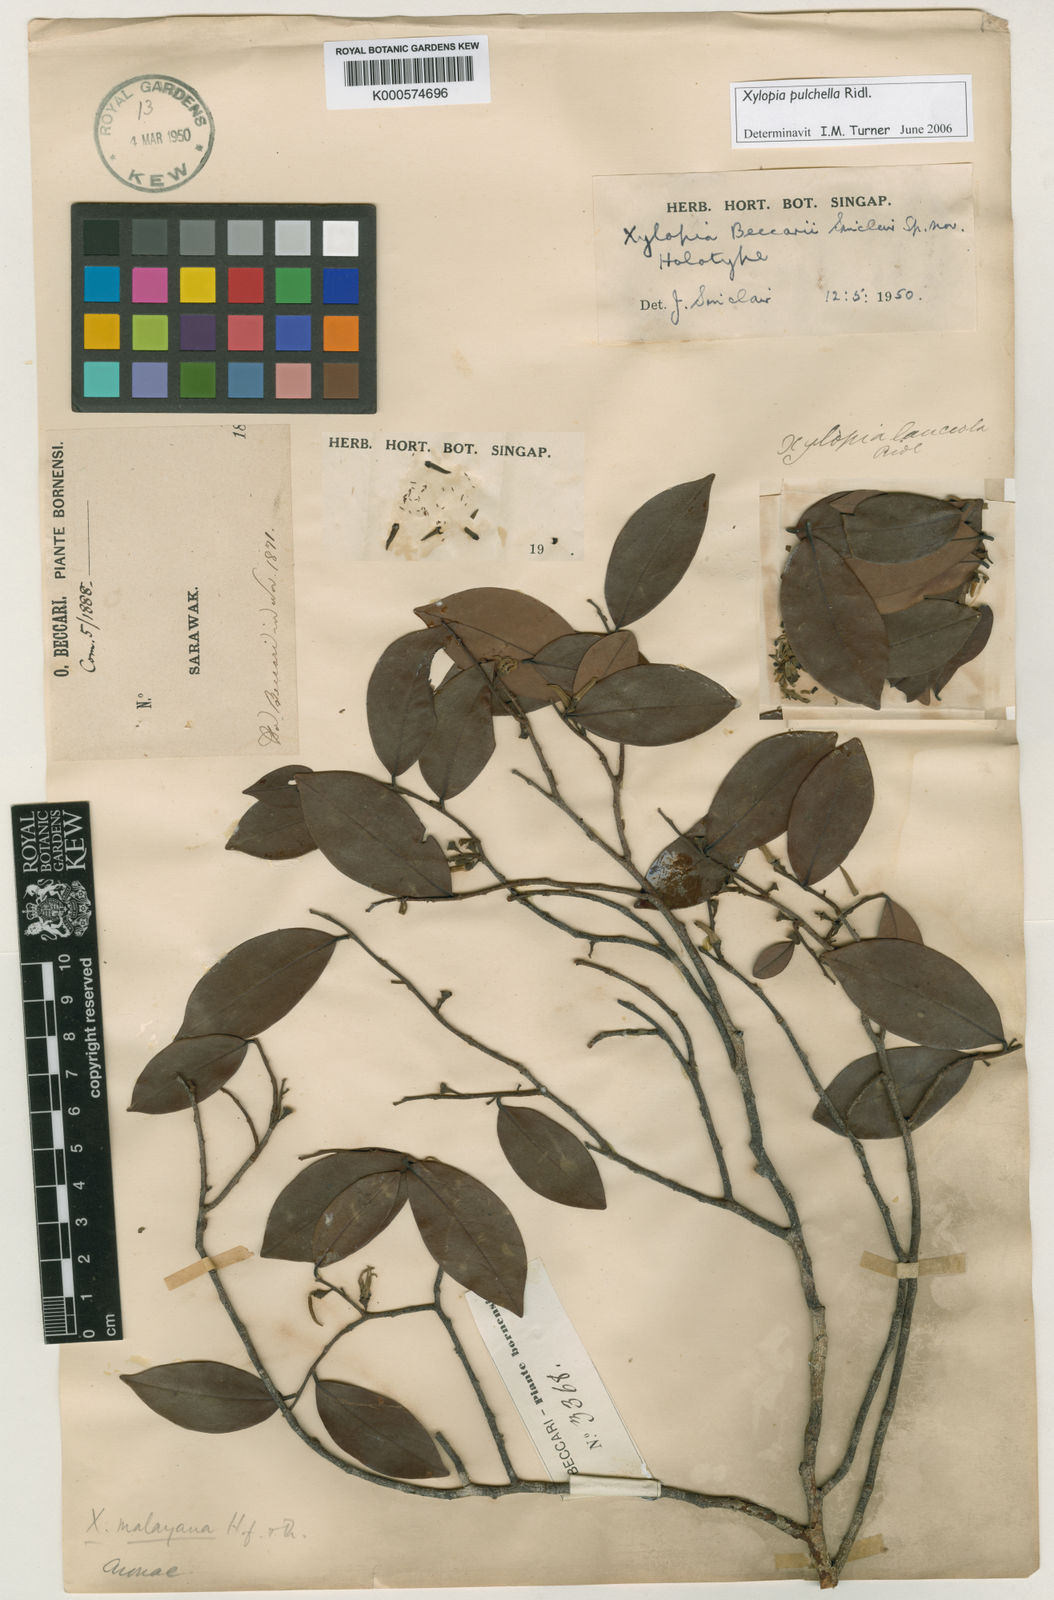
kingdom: Plantae
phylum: Tracheophyta
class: Magnoliopsida
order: Magnoliales
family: Annonaceae
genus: Xylopia
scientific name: Xylopia beccarii
